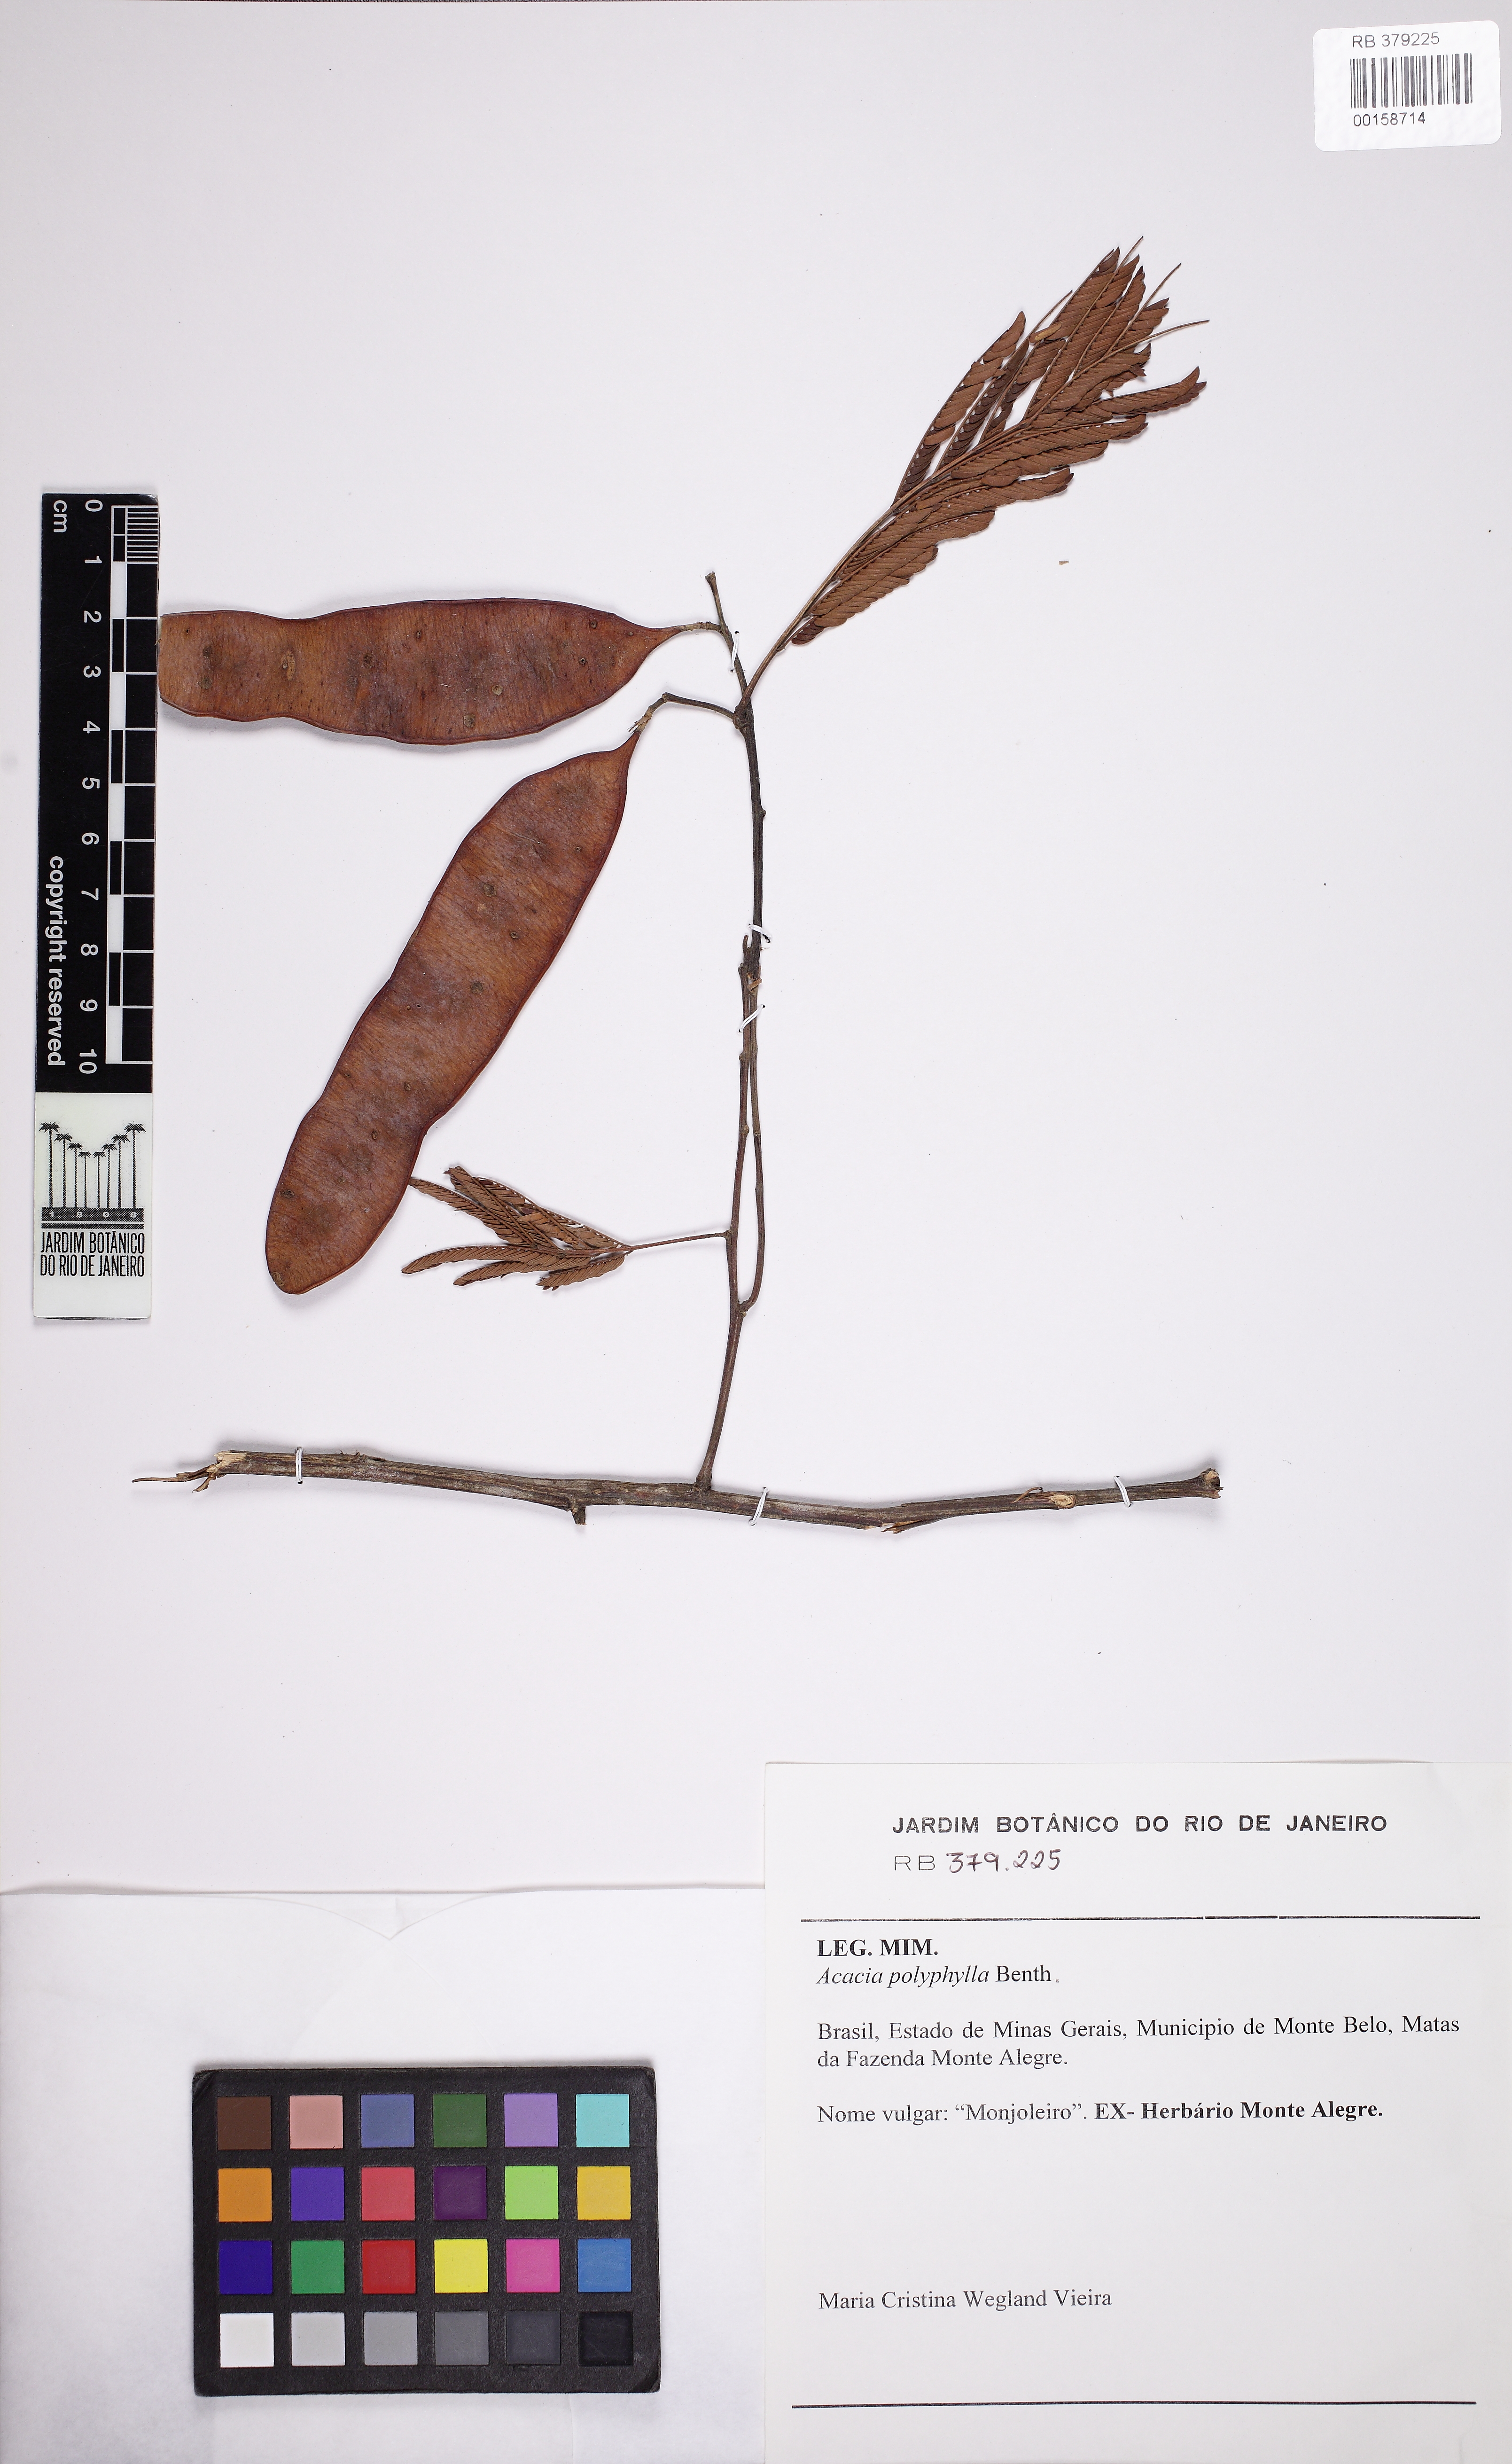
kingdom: Plantae
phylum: Tracheophyta
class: Magnoliopsida
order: Fabales
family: Fabaceae
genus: Senegalia
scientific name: Senegalia polyphylla
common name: White-tamarind
